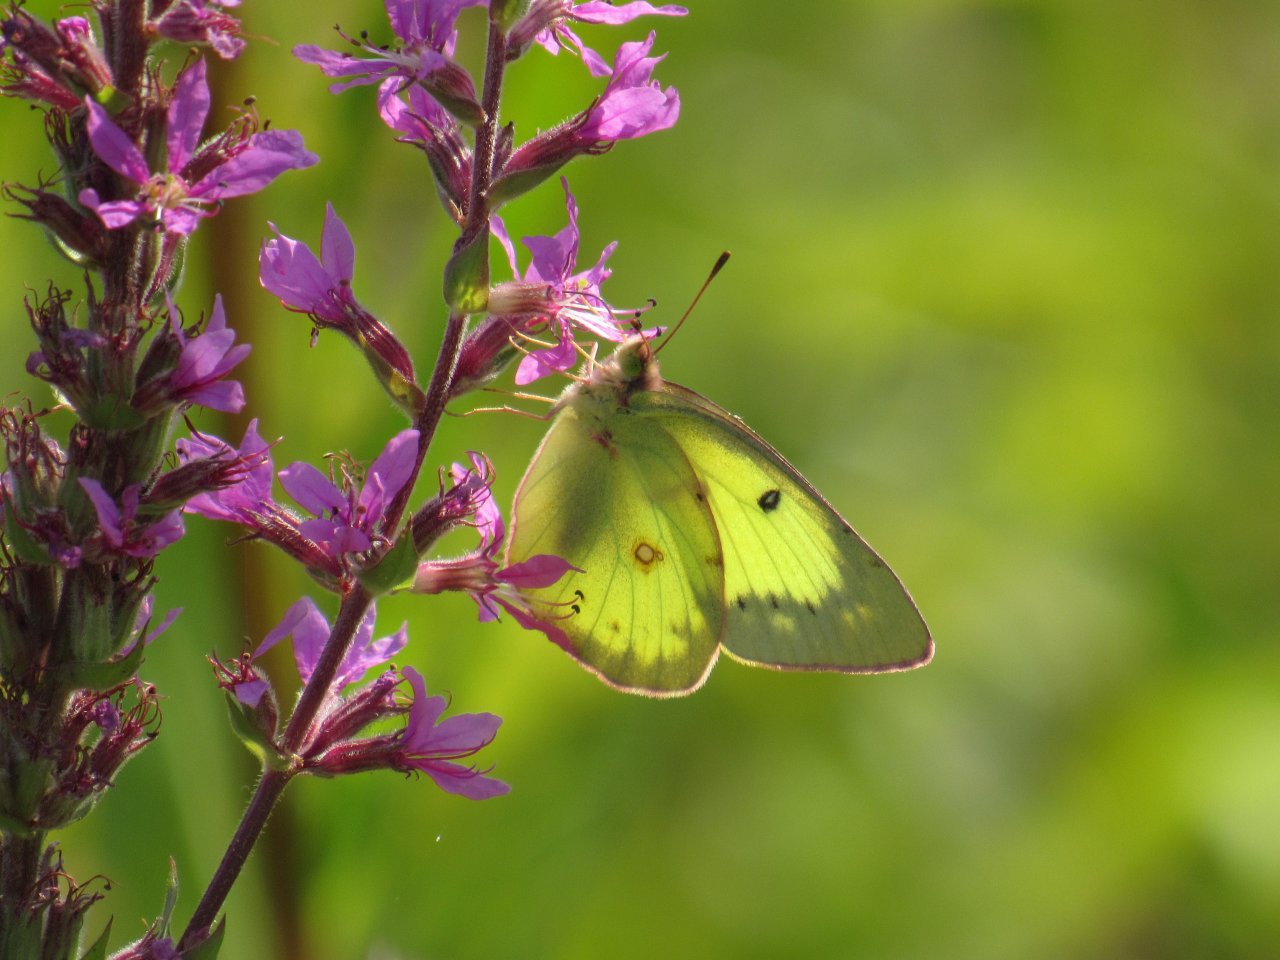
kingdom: Animalia
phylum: Arthropoda
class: Insecta
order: Lepidoptera
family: Pieridae
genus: Colias
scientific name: Colias philodice
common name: Clouded Sulphur
